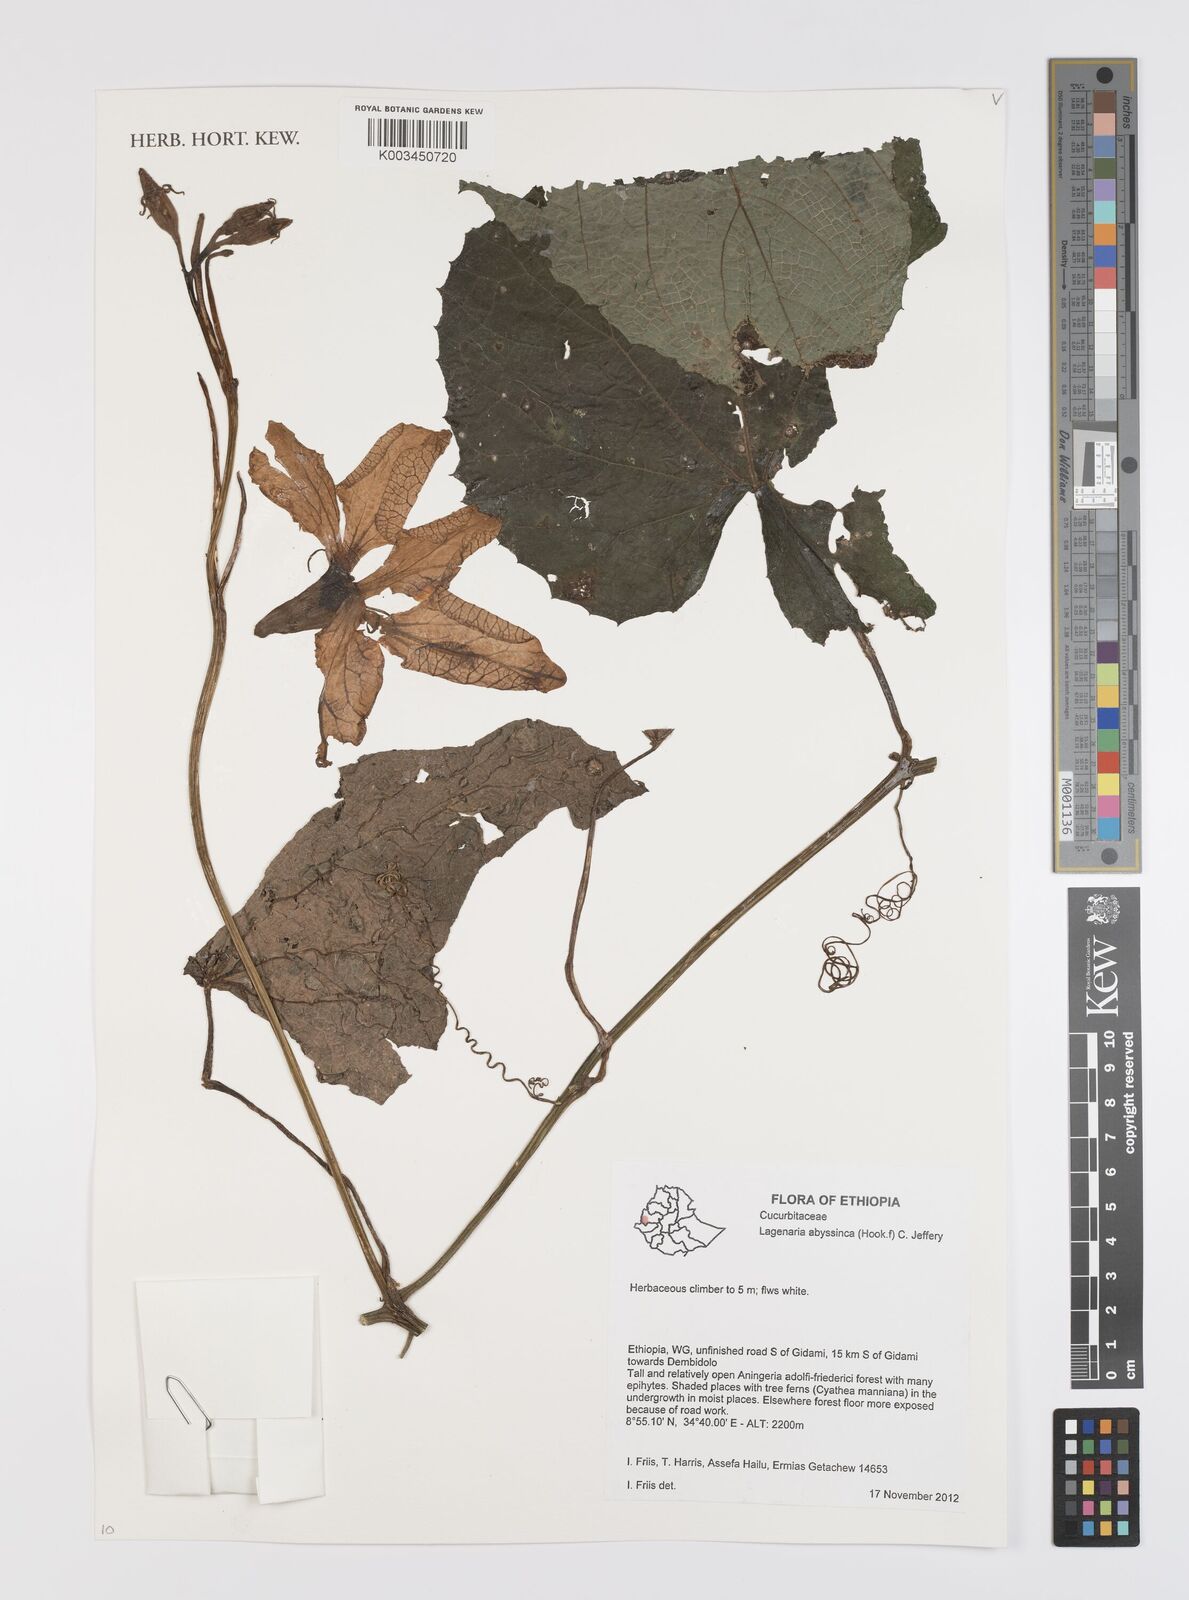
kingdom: Plantae
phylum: Tracheophyta
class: Magnoliopsida
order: Cucurbitales
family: Cucurbitaceae
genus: Lagenaria
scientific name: Lagenaria abyssinica
